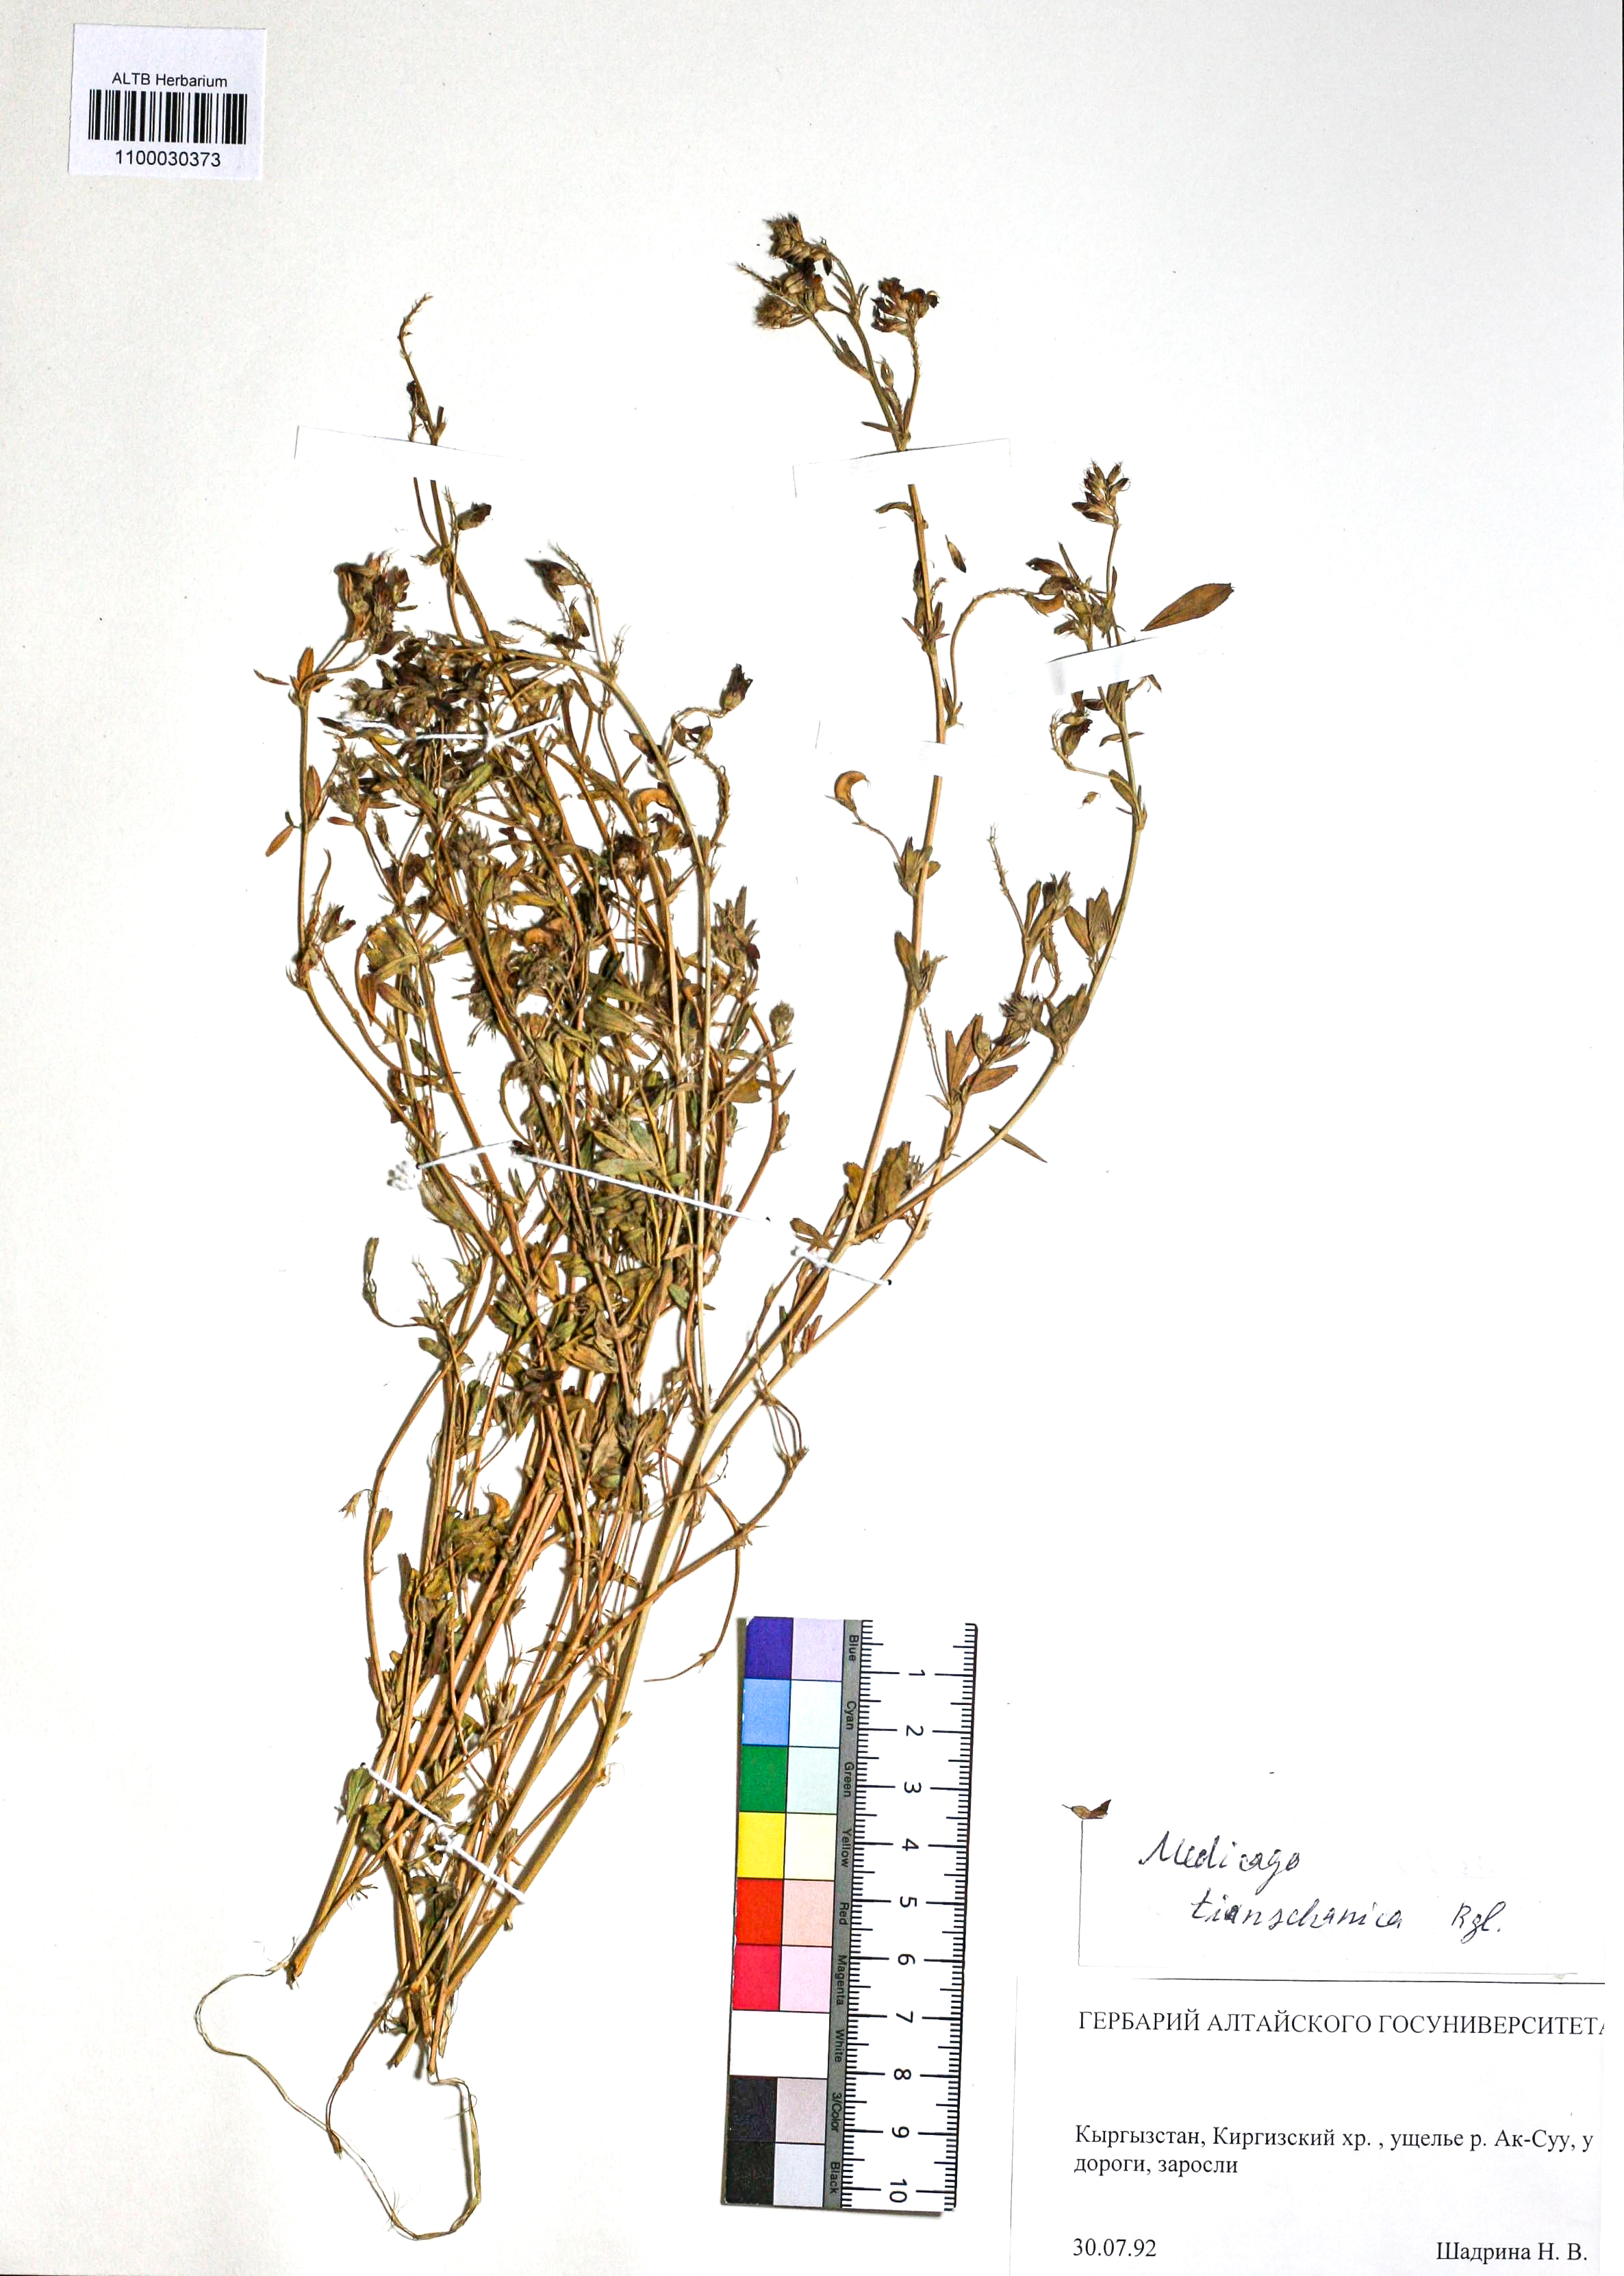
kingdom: Plantae
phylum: Tracheophyta
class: Magnoliopsida
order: Fabales
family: Fabaceae
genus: Medicago
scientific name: Medicago varia
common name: Sand lucerne
